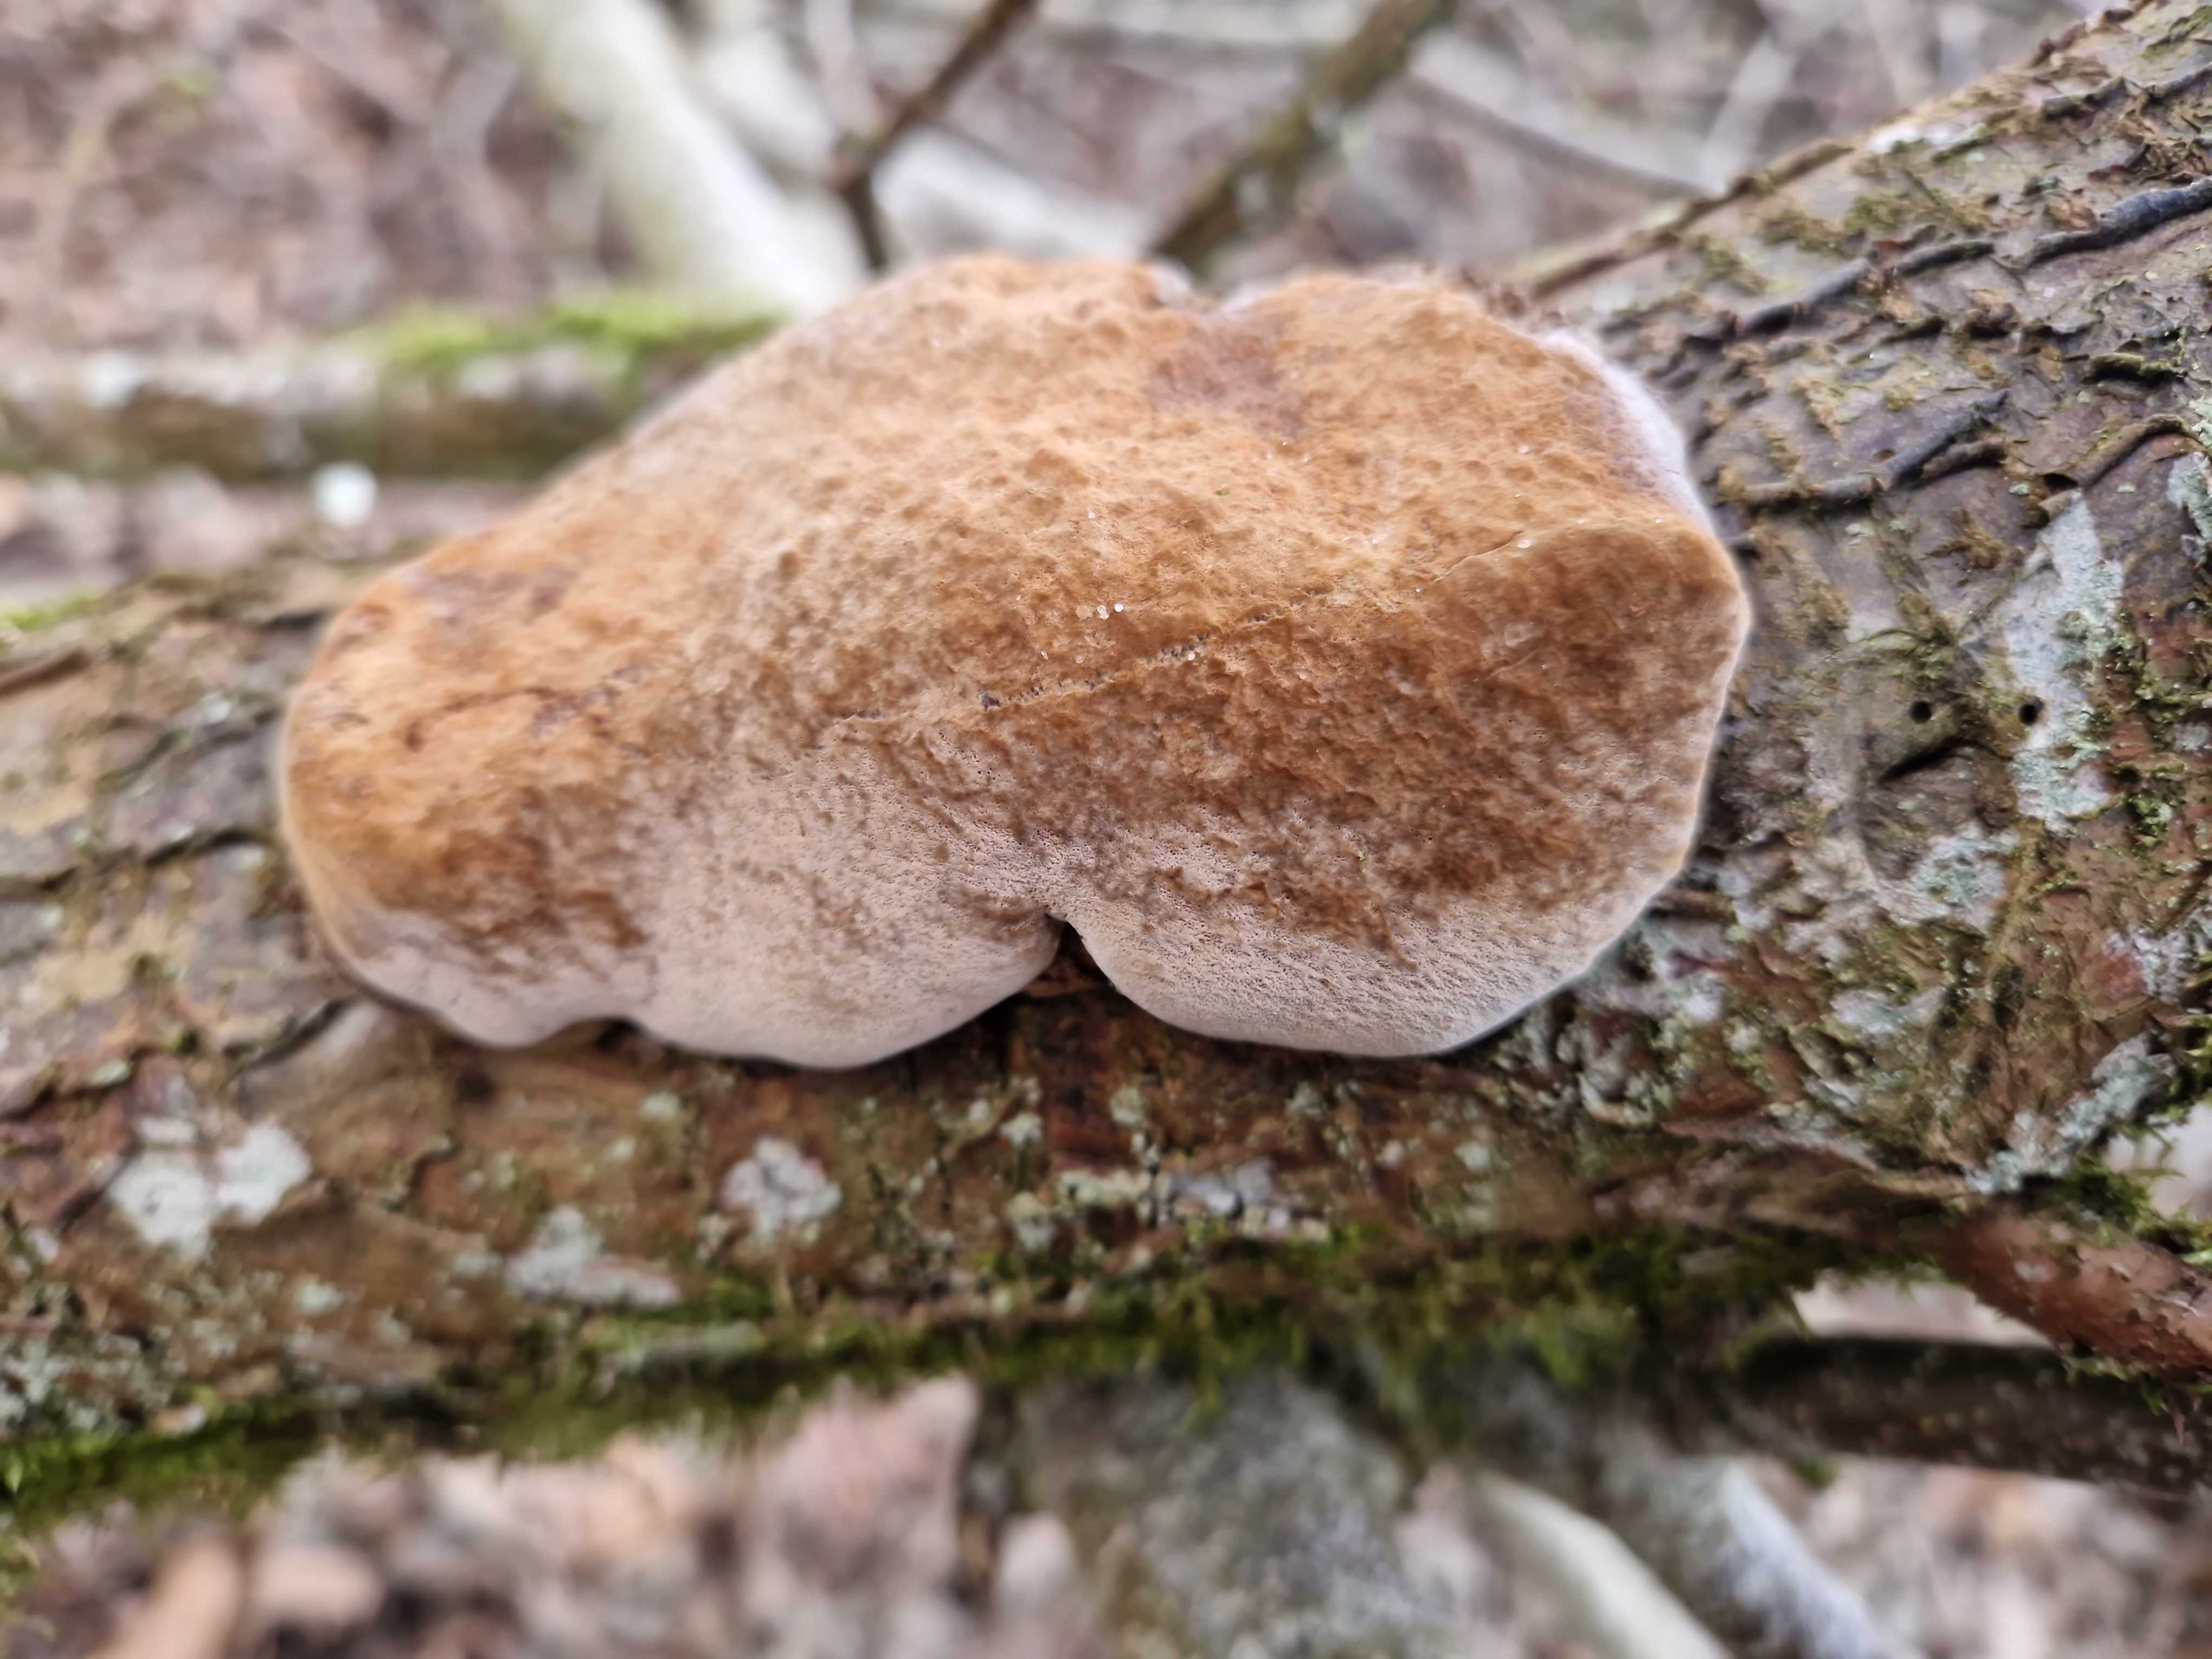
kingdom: Fungi
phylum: Basidiomycota
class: Agaricomycetes
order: Hymenochaetales
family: Hymenochaetaceae
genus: Phellinus
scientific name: Phellinus pomaceus
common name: blomme-ildporesvamp
